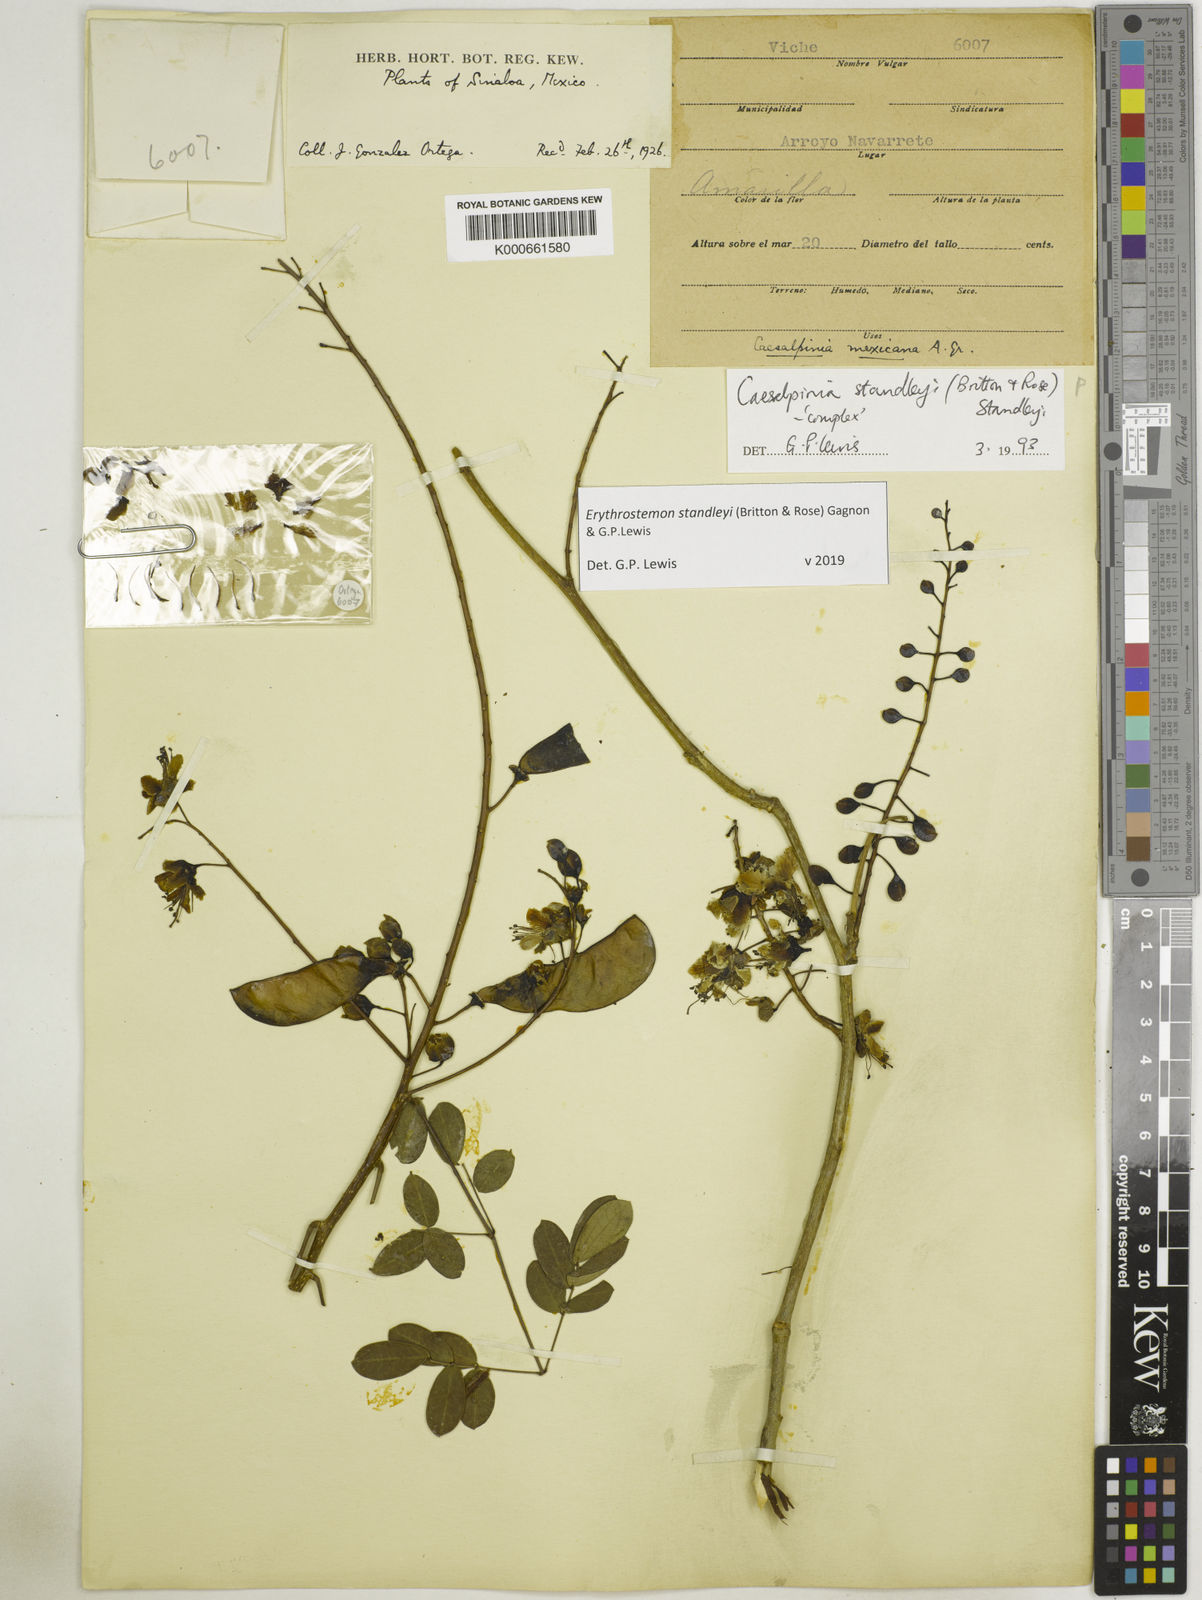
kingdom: Plantae
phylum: Tracheophyta
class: Magnoliopsida
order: Fabales
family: Fabaceae
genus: Erythrostemon
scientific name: Erythrostemon standleyi
